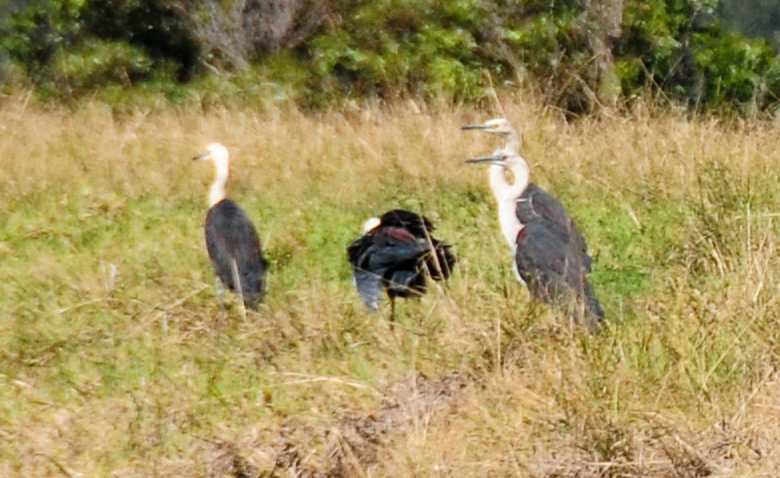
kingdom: Animalia
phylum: Chordata
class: Aves
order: Pelecaniformes
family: Ardeidae
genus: Ardea
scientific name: Ardea pacifica
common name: White-necked heron
